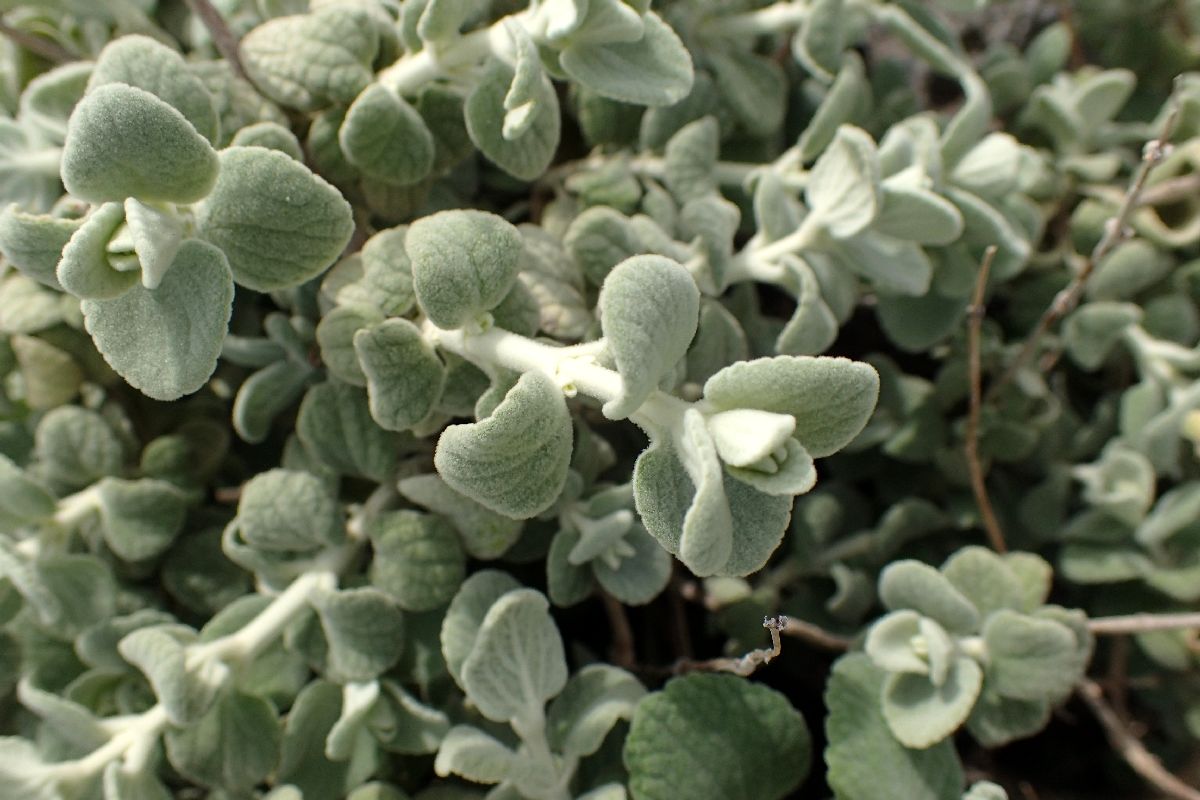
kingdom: Plantae
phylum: Tracheophyta
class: Magnoliopsida
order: Lamiales
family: Lamiaceae
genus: Pseudodictamnus
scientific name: Pseudodictamnus mediterraneus
